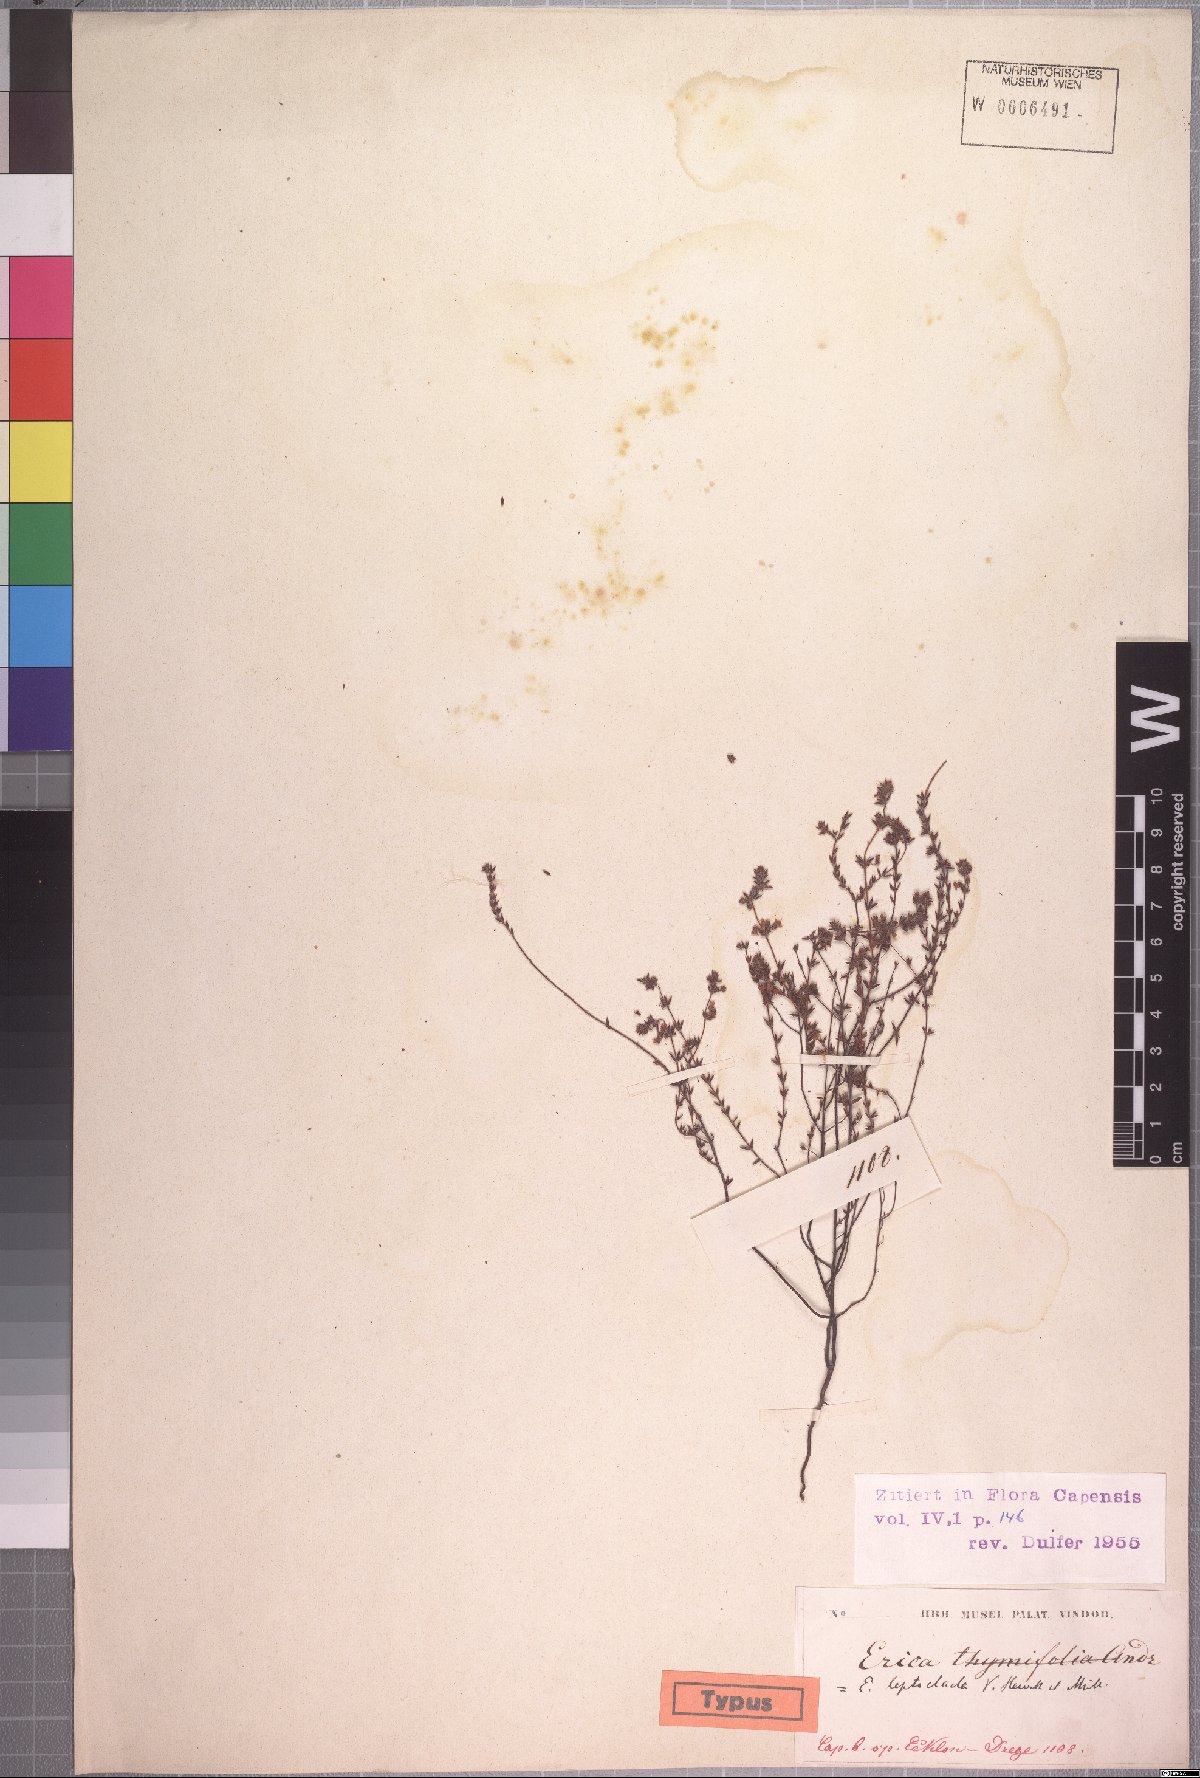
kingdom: Plantae
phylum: Tracheophyta
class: Magnoliopsida
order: Ericales
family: Ericaceae
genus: Erica
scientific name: Erica leptoclada
